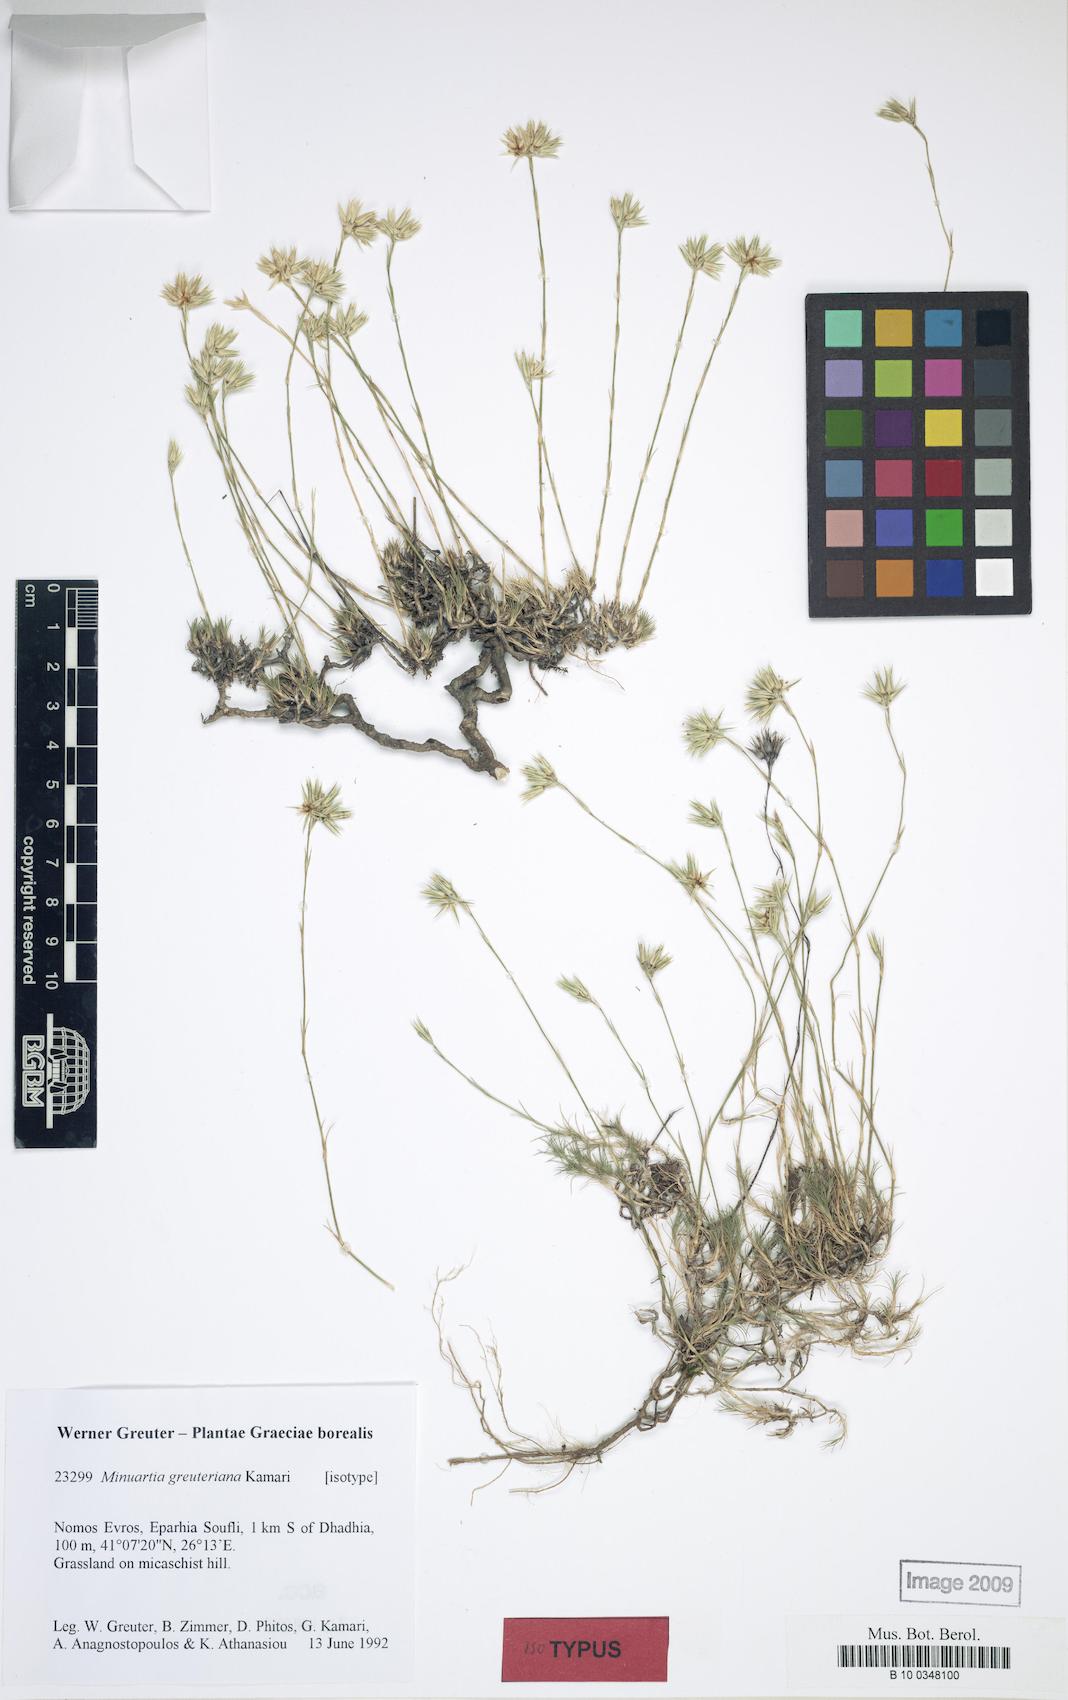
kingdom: Plantae
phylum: Tracheophyta
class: Magnoliopsida
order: Caryophyllales
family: Caryophyllaceae
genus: Minuartia
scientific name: Minuartia greuteriana
